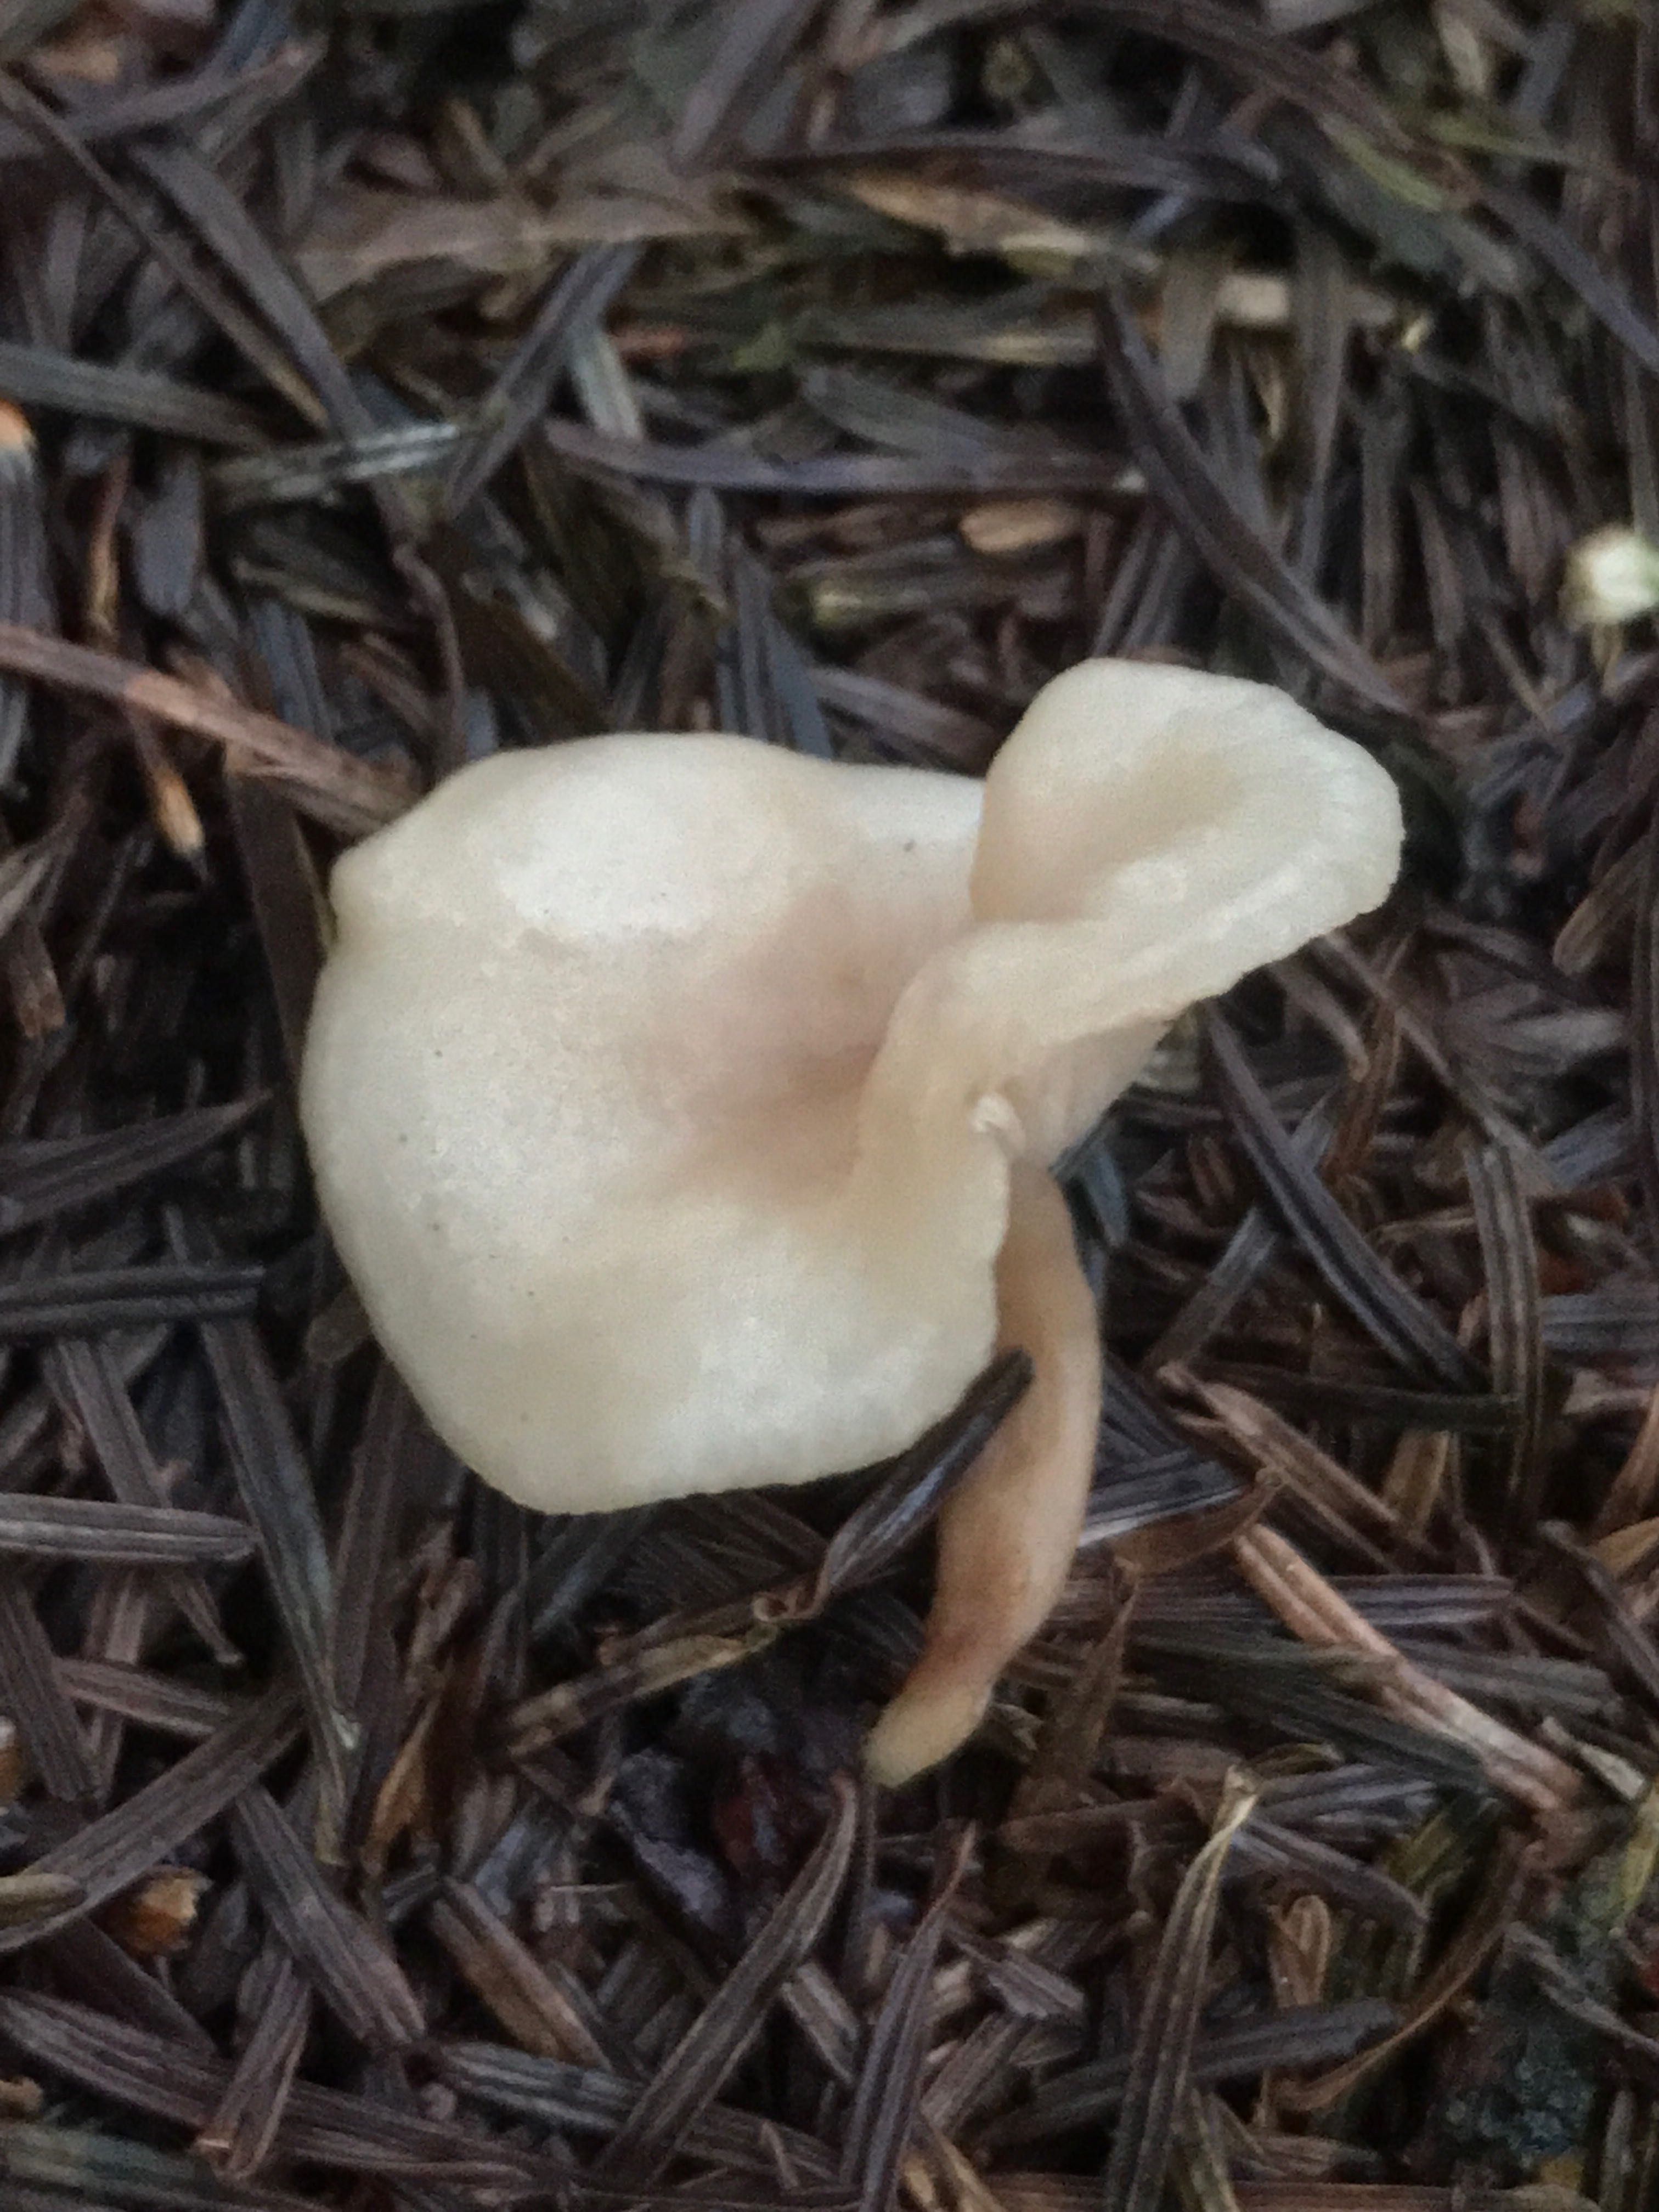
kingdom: Fungi
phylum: Basidiomycota
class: Agaricomycetes
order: Agaricales
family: Tricholomataceae
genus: Clitocybe
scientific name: Clitocybe
